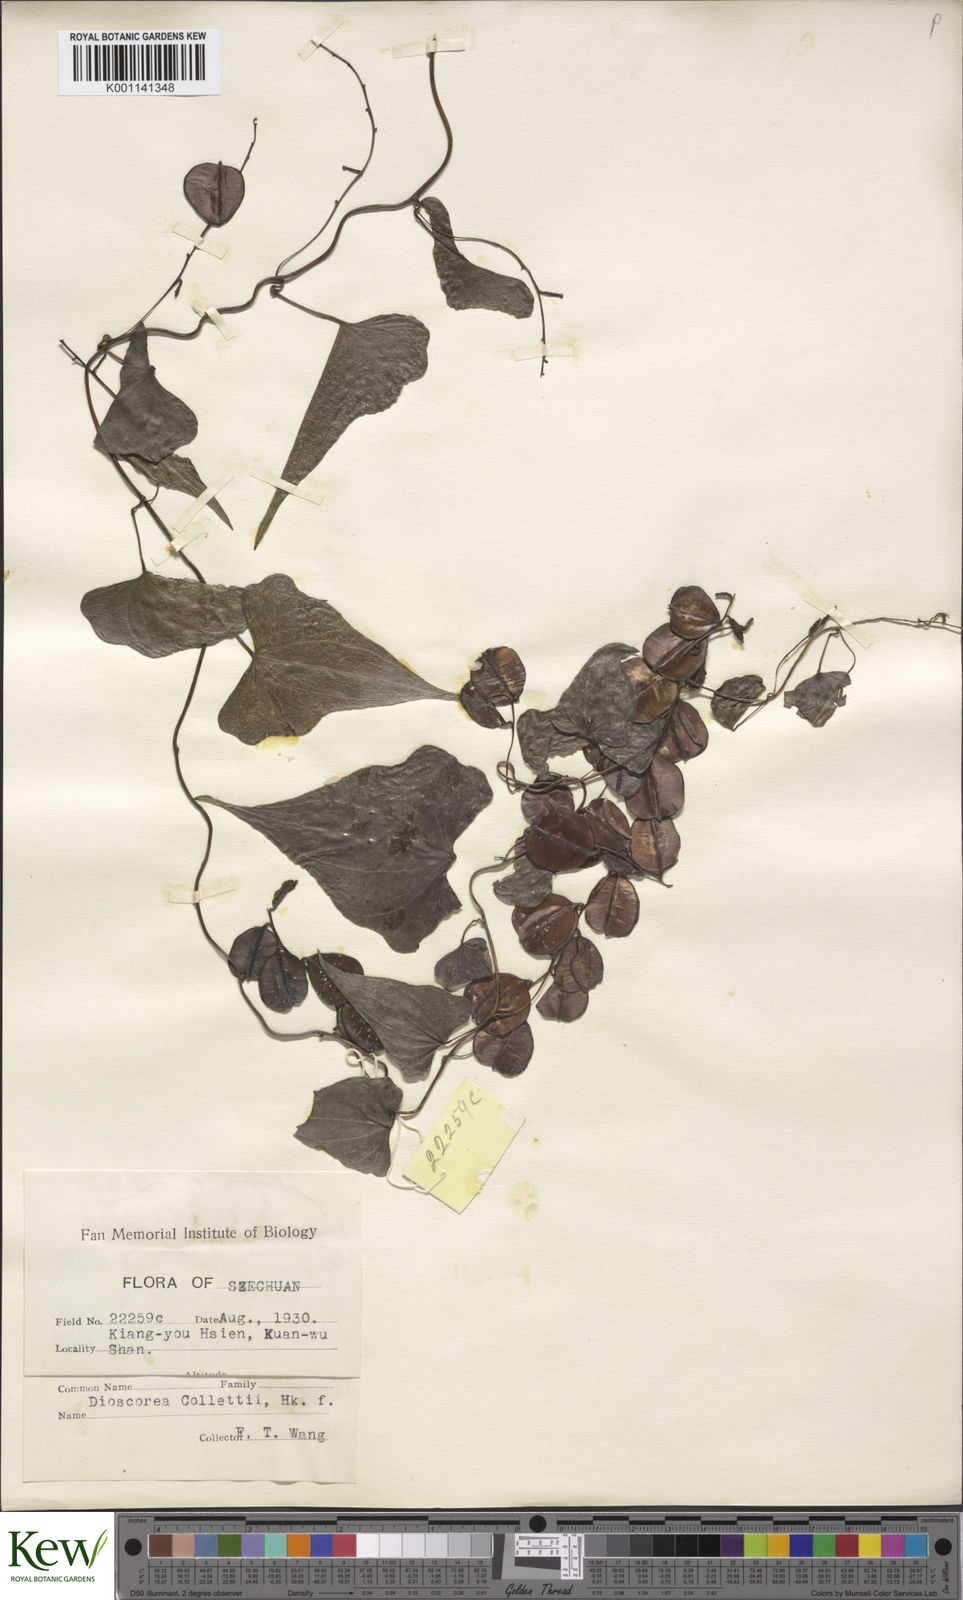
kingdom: Plantae
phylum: Tracheophyta
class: Liliopsida
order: Dioscoreales
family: Dioscoreaceae
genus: Dioscorea
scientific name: Dioscorea collettii
